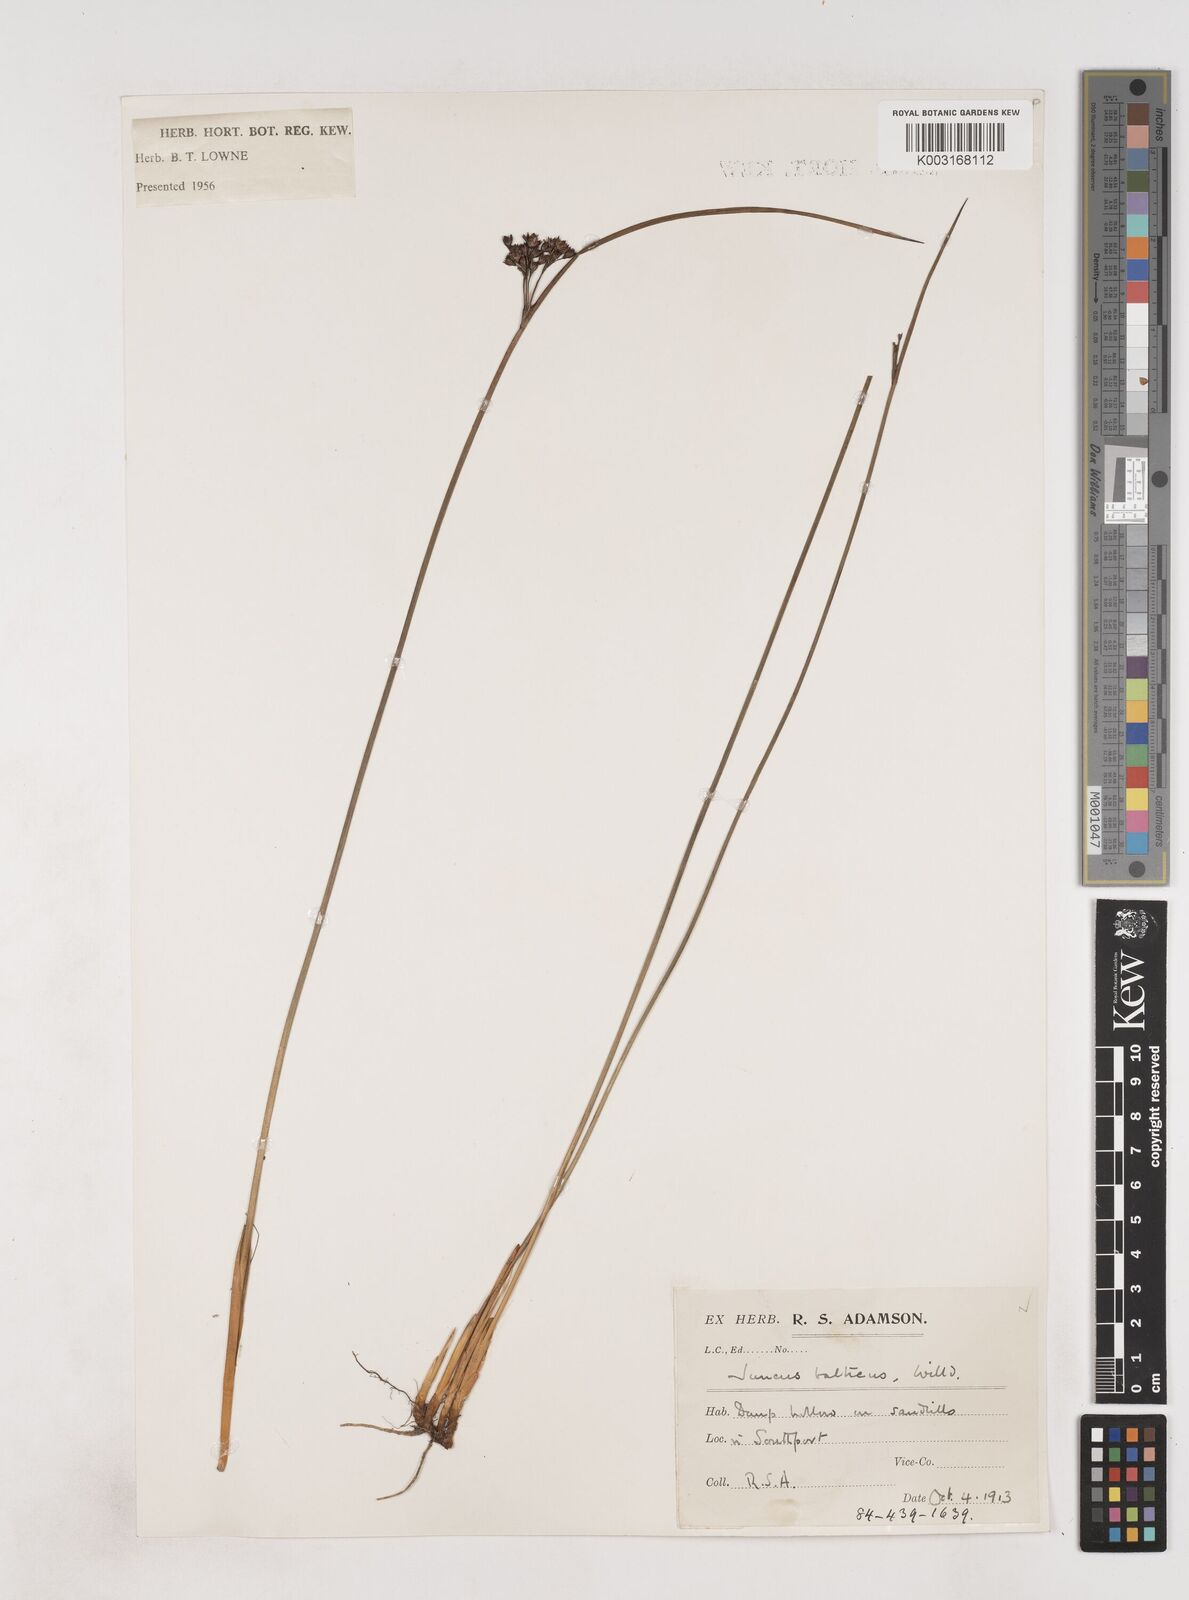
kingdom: Plantae
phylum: Tracheophyta
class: Liliopsida
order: Poales
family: Juncaceae
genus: Juncus
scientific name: Juncus balticus
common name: Baltic rush
